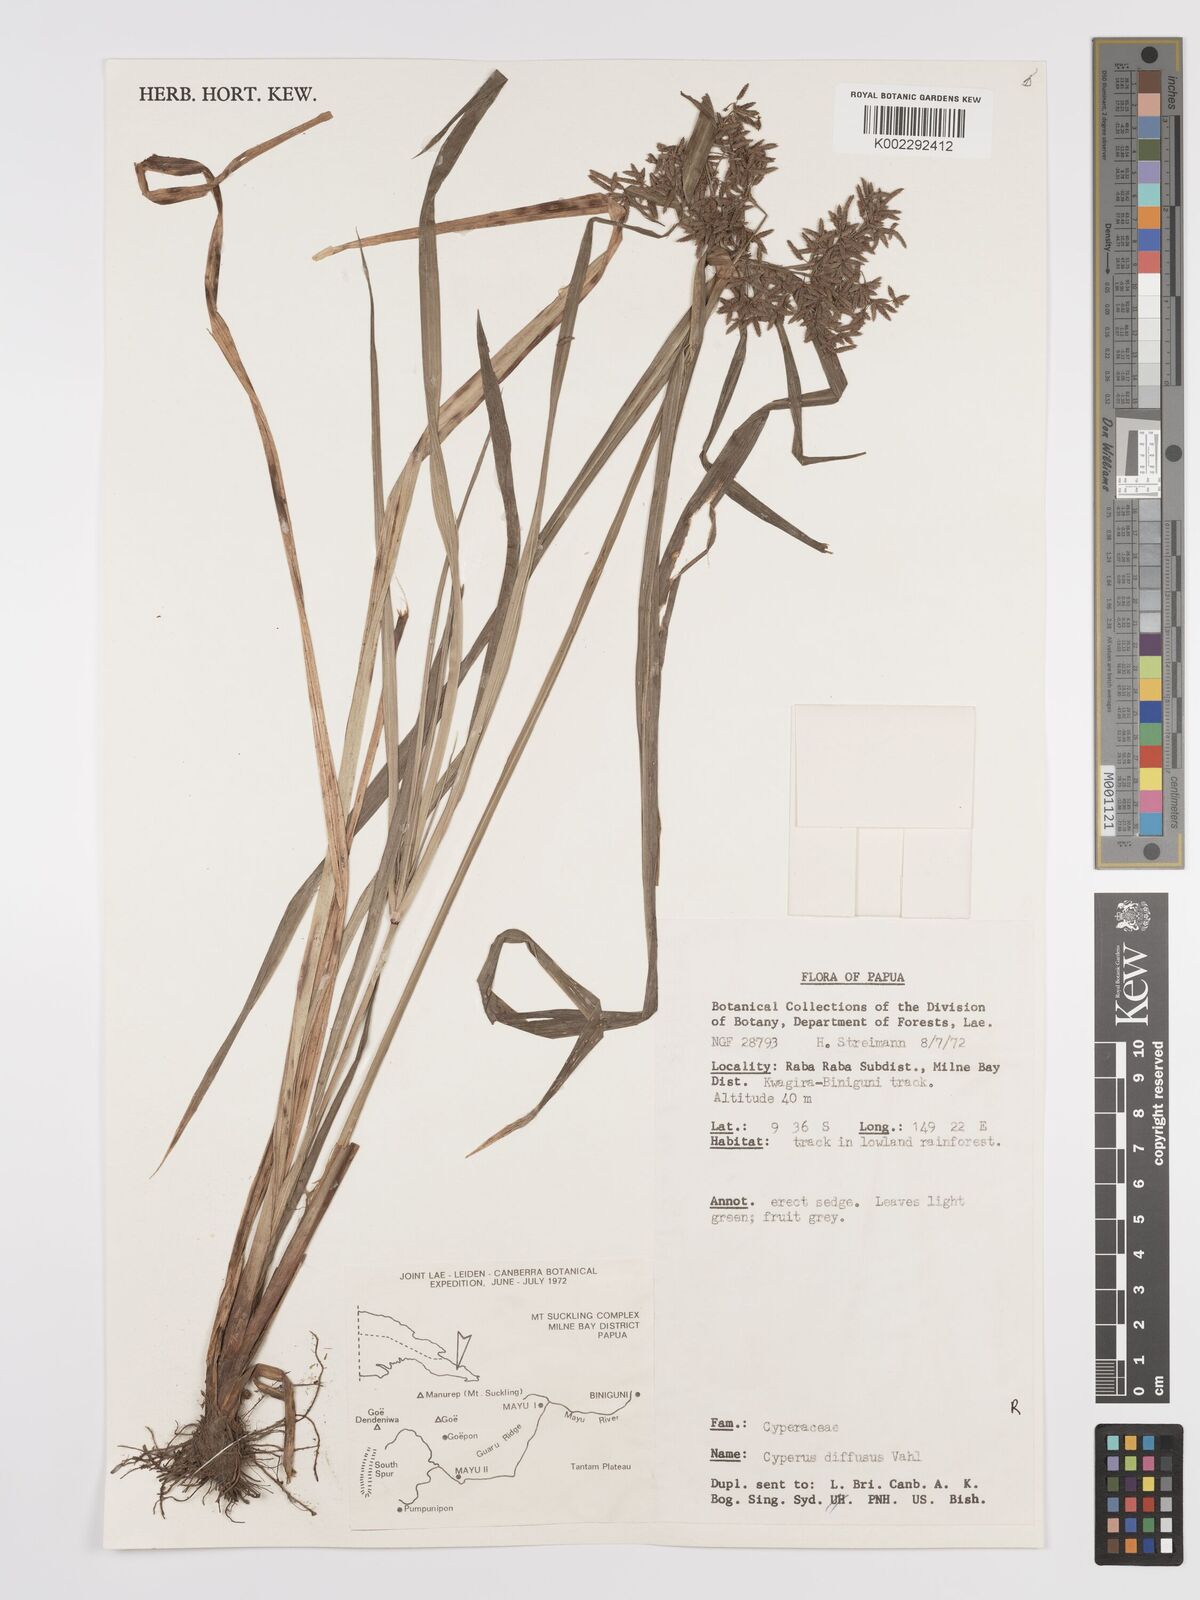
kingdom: Plantae
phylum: Tracheophyta
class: Liliopsida
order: Poales
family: Cyperaceae
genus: Cyperus
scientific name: Cyperus diffusus
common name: Dwarf umbrella grass
